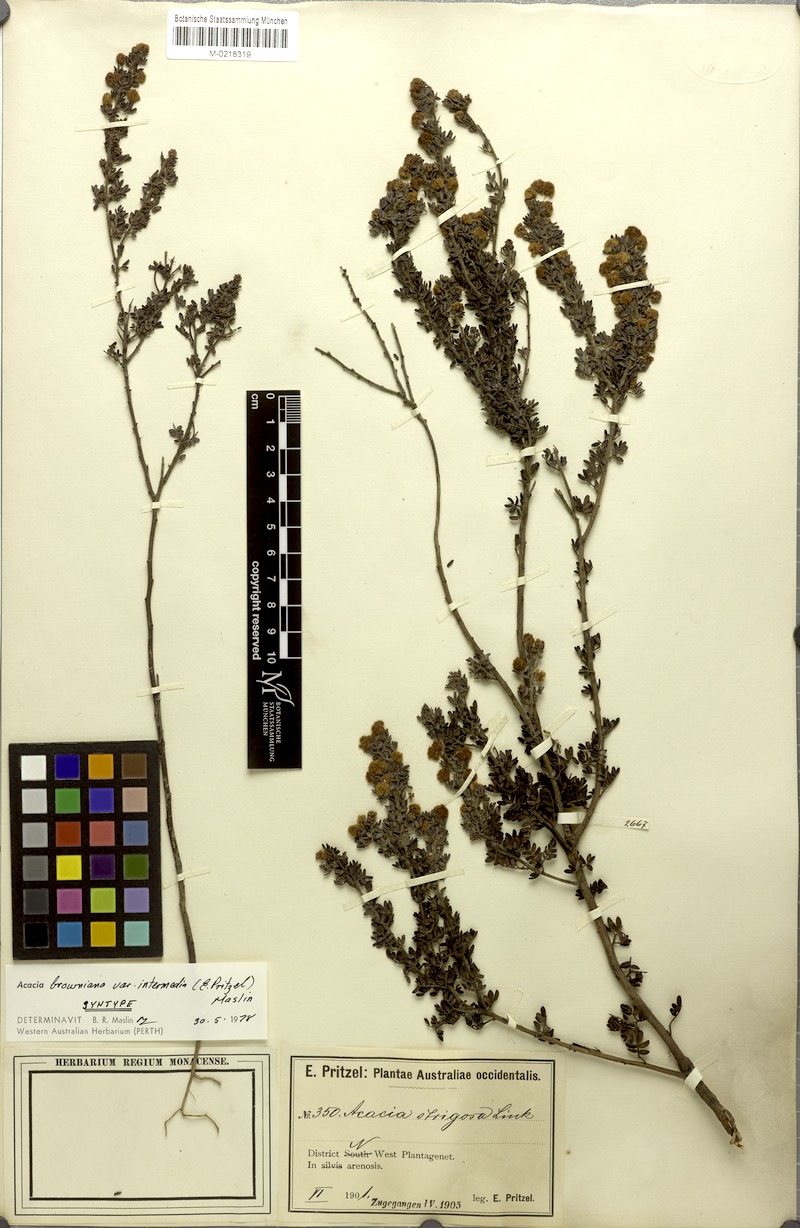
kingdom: Plantae
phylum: Tracheophyta
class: Magnoliopsida
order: Fabales
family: Fabaceae
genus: Acacia
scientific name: Acacia browniana
